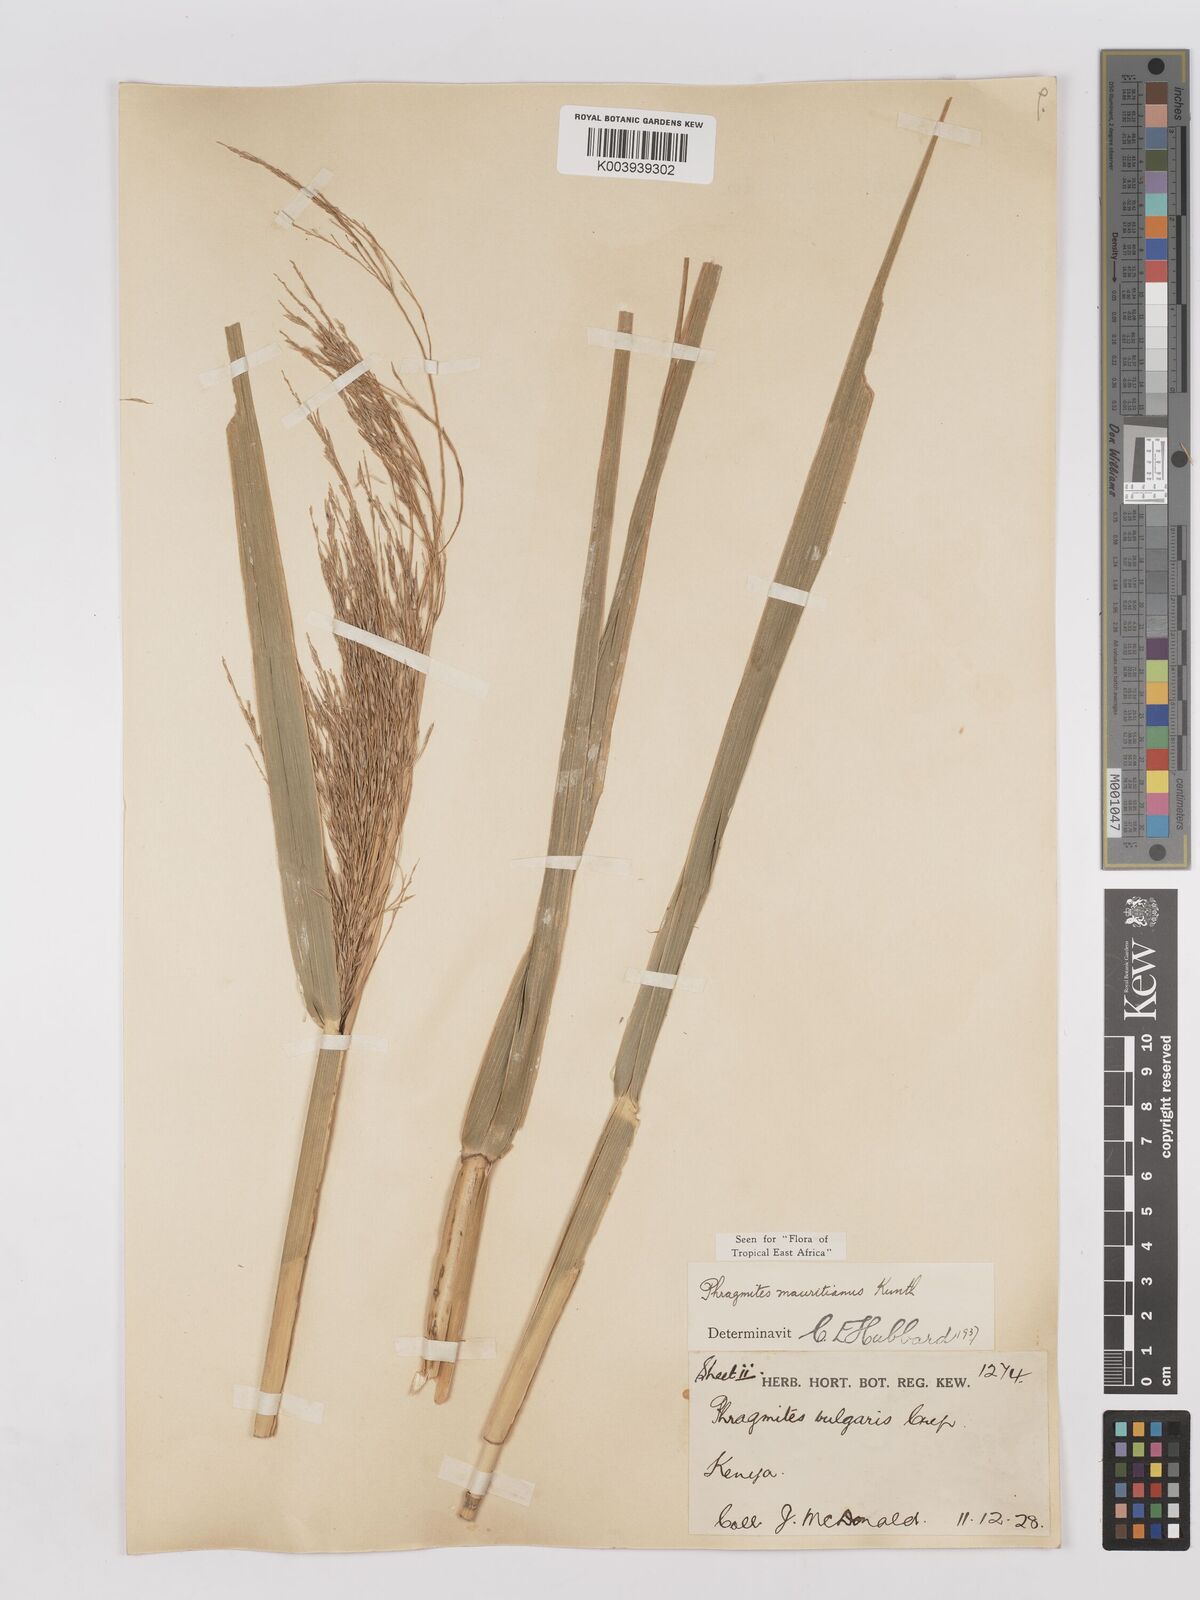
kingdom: Plantae
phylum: Tracheophyta
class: Liliopsida
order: Poales
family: Poaceae
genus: Phragmites
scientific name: Phragmites mauritianus
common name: Reed grass
